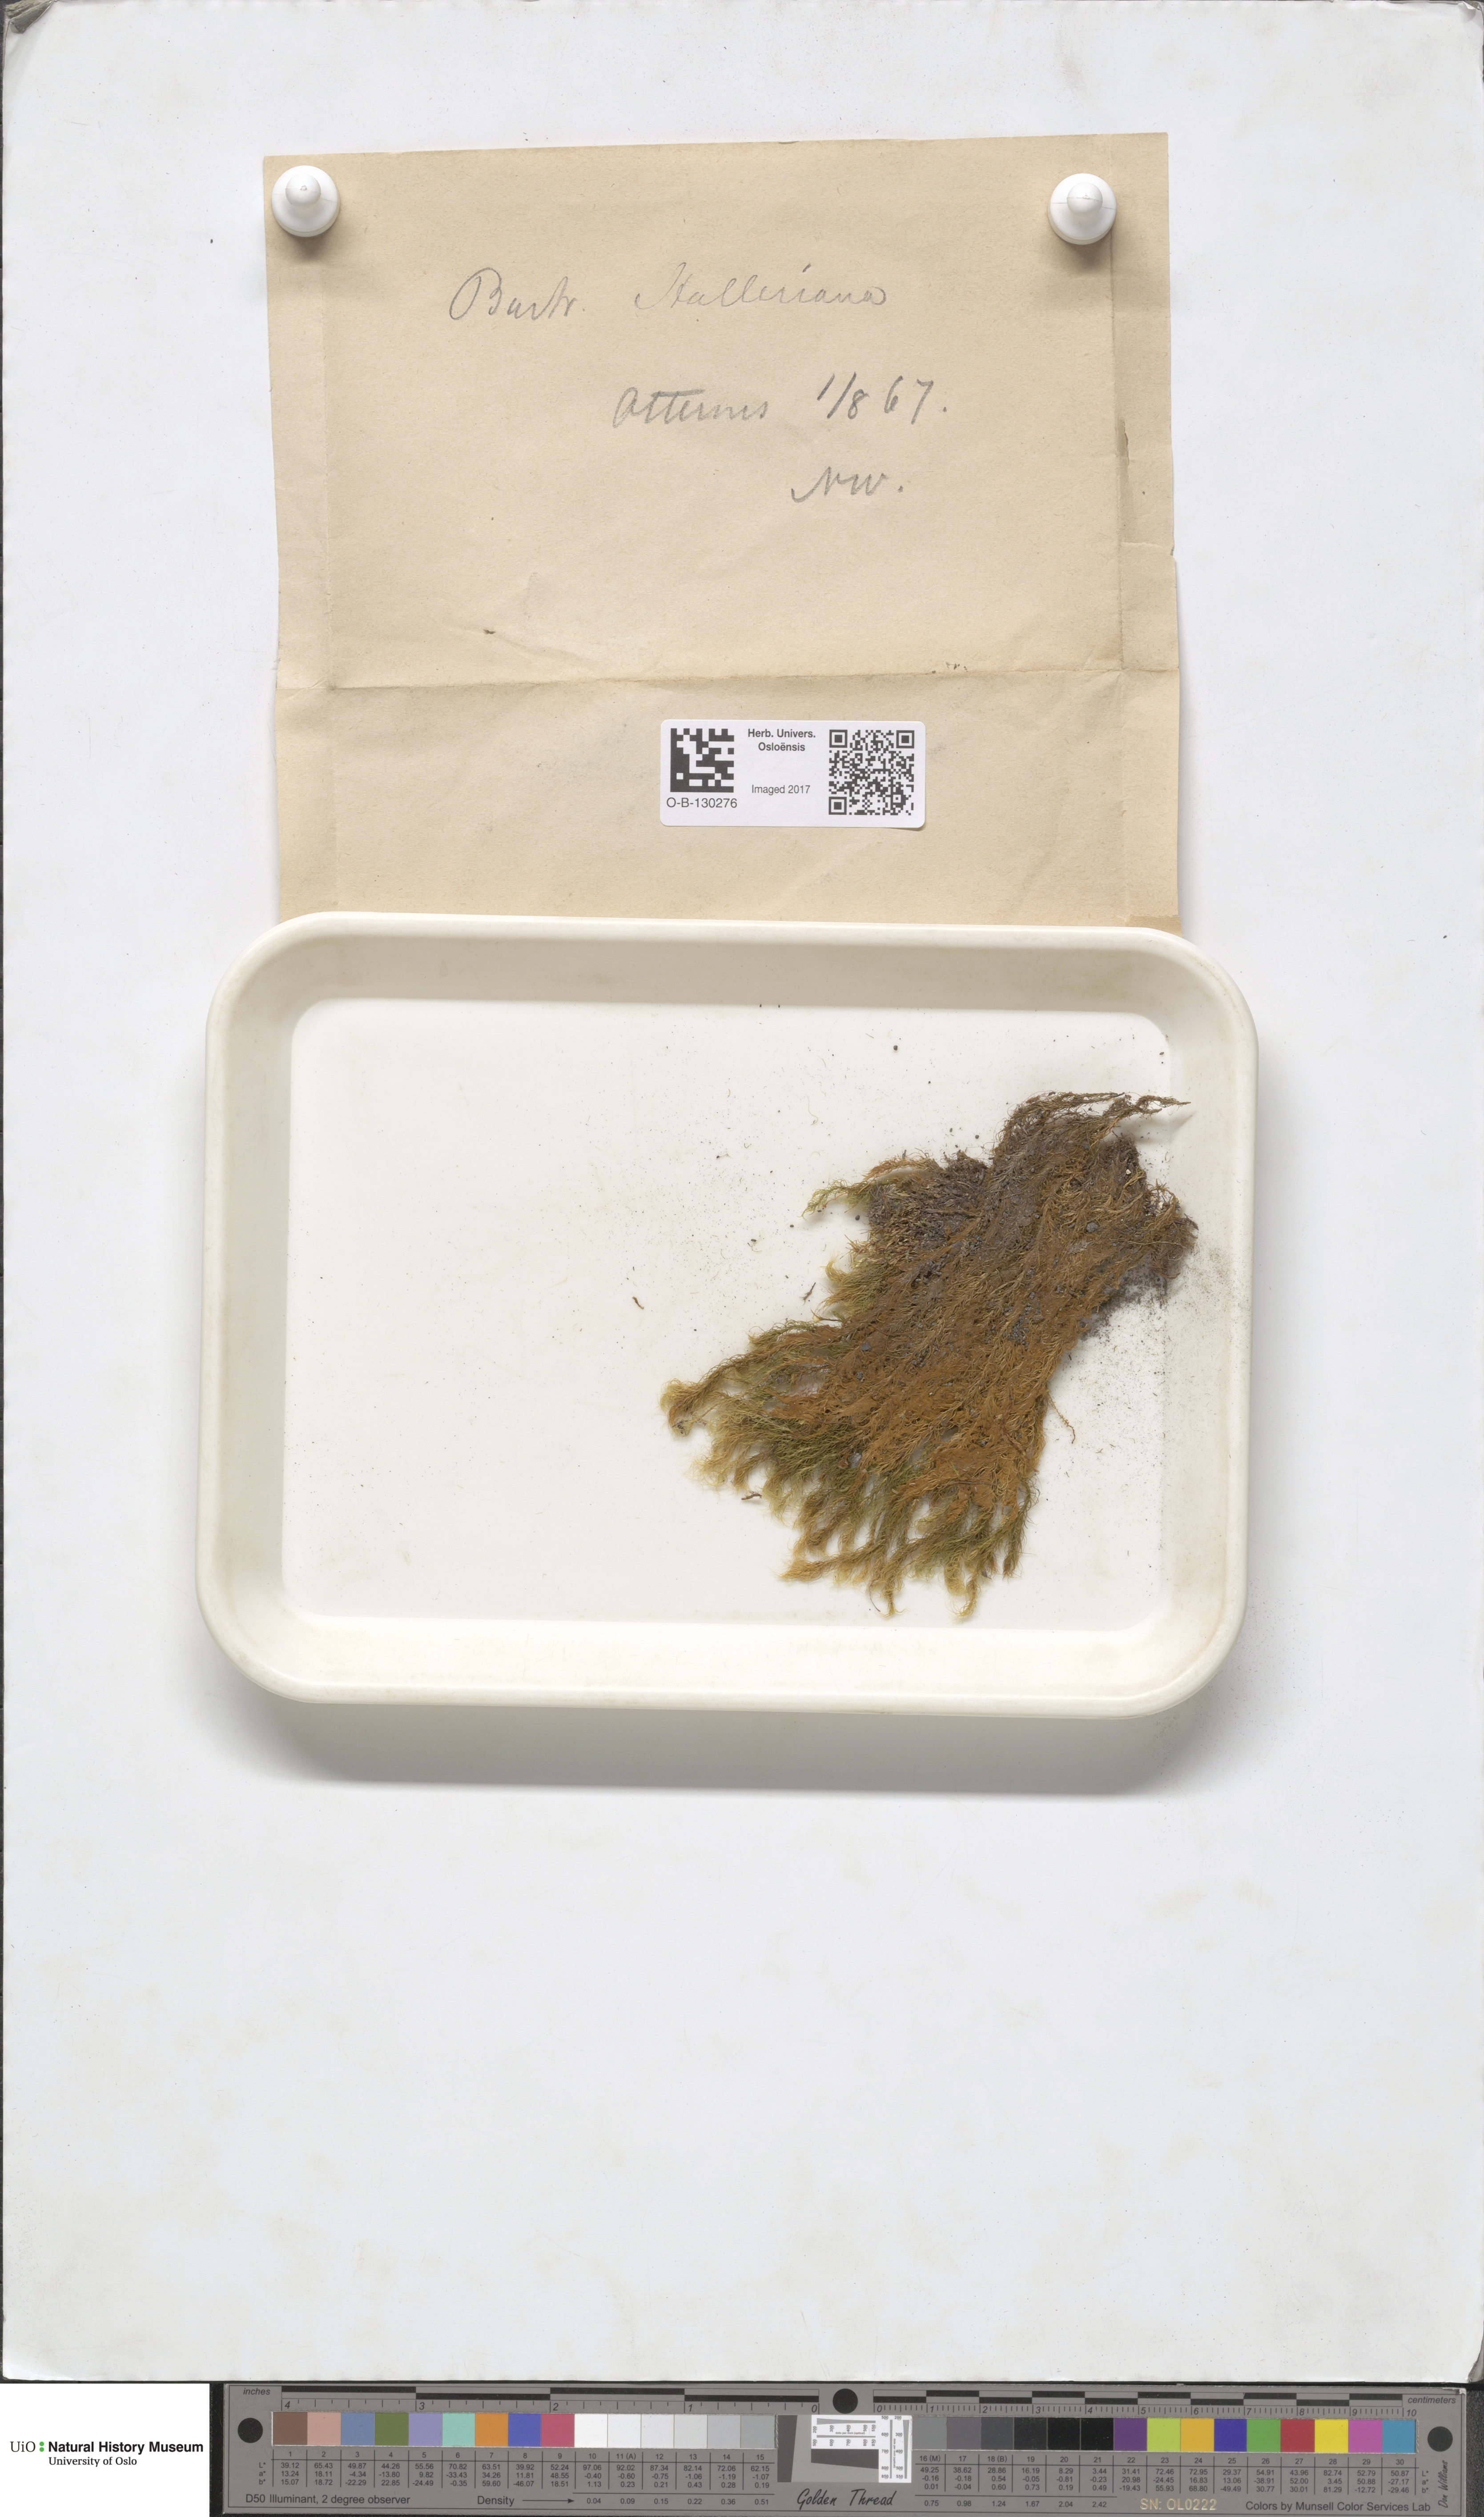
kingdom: Plantae
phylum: Bryophyta
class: Bryopsida
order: Bartramiales
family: Bartramiaceae
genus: Bartramia
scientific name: Bartramia halleriana
